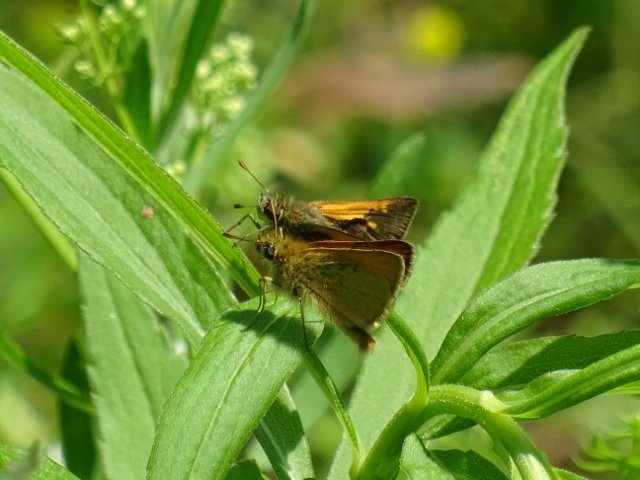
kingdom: Animalia
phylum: Arthropoda
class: Insecta
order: Lepidoptera
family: Hesperiidae
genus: Polites
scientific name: Polites themistocles
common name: Tawny-edged Skipper
